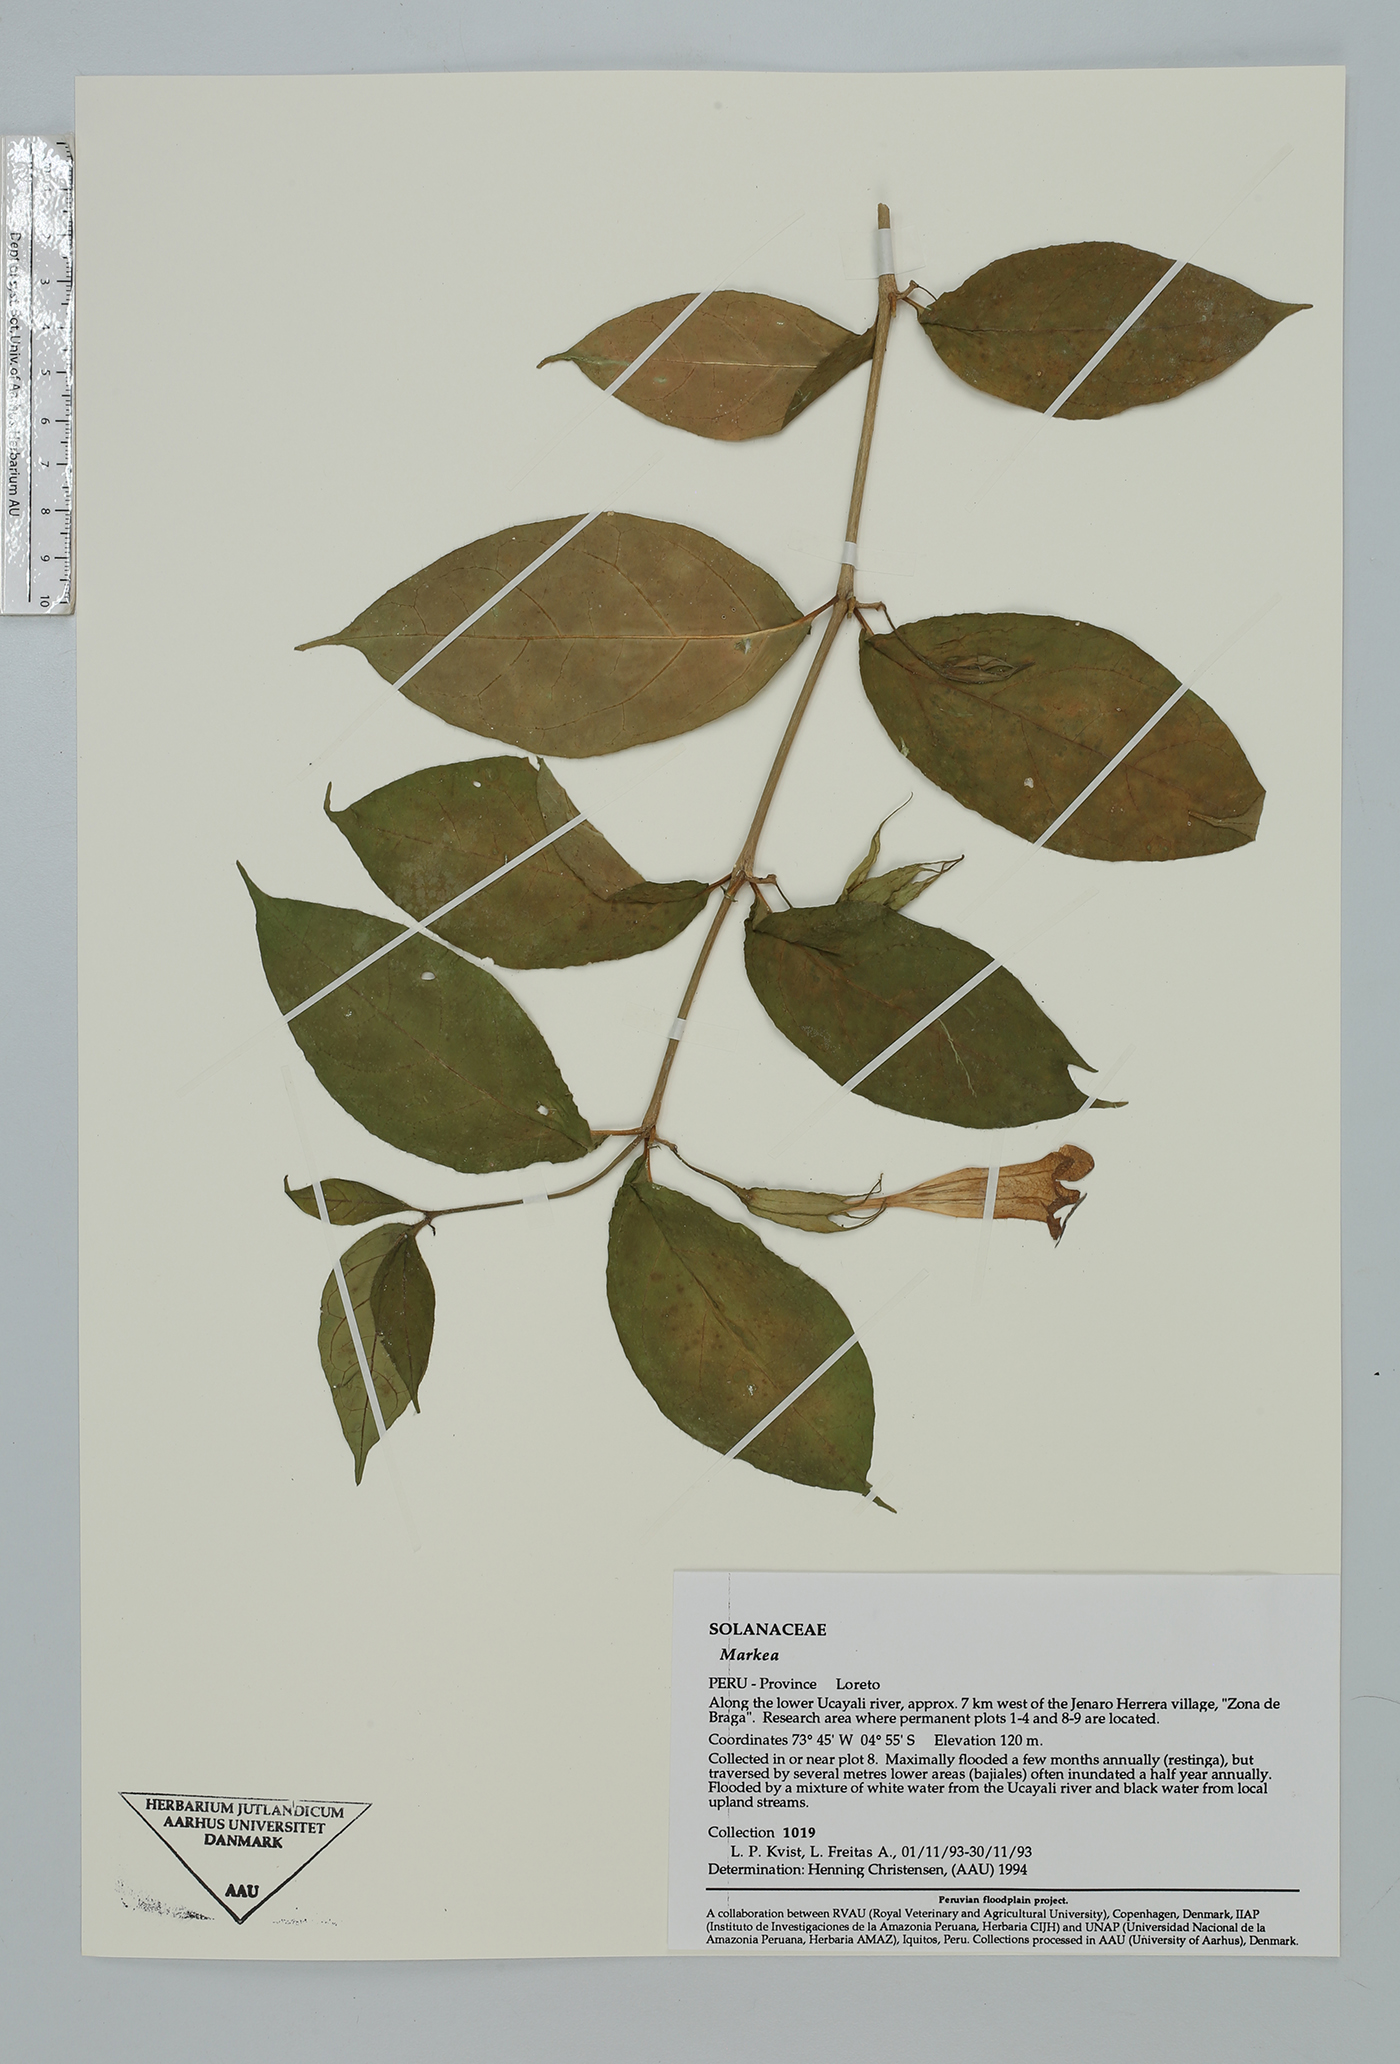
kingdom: Plantae
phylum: Tracheophyta
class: Magnoliopsida
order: Solanales
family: Solanaceae
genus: Markea
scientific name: Markea formicarum
